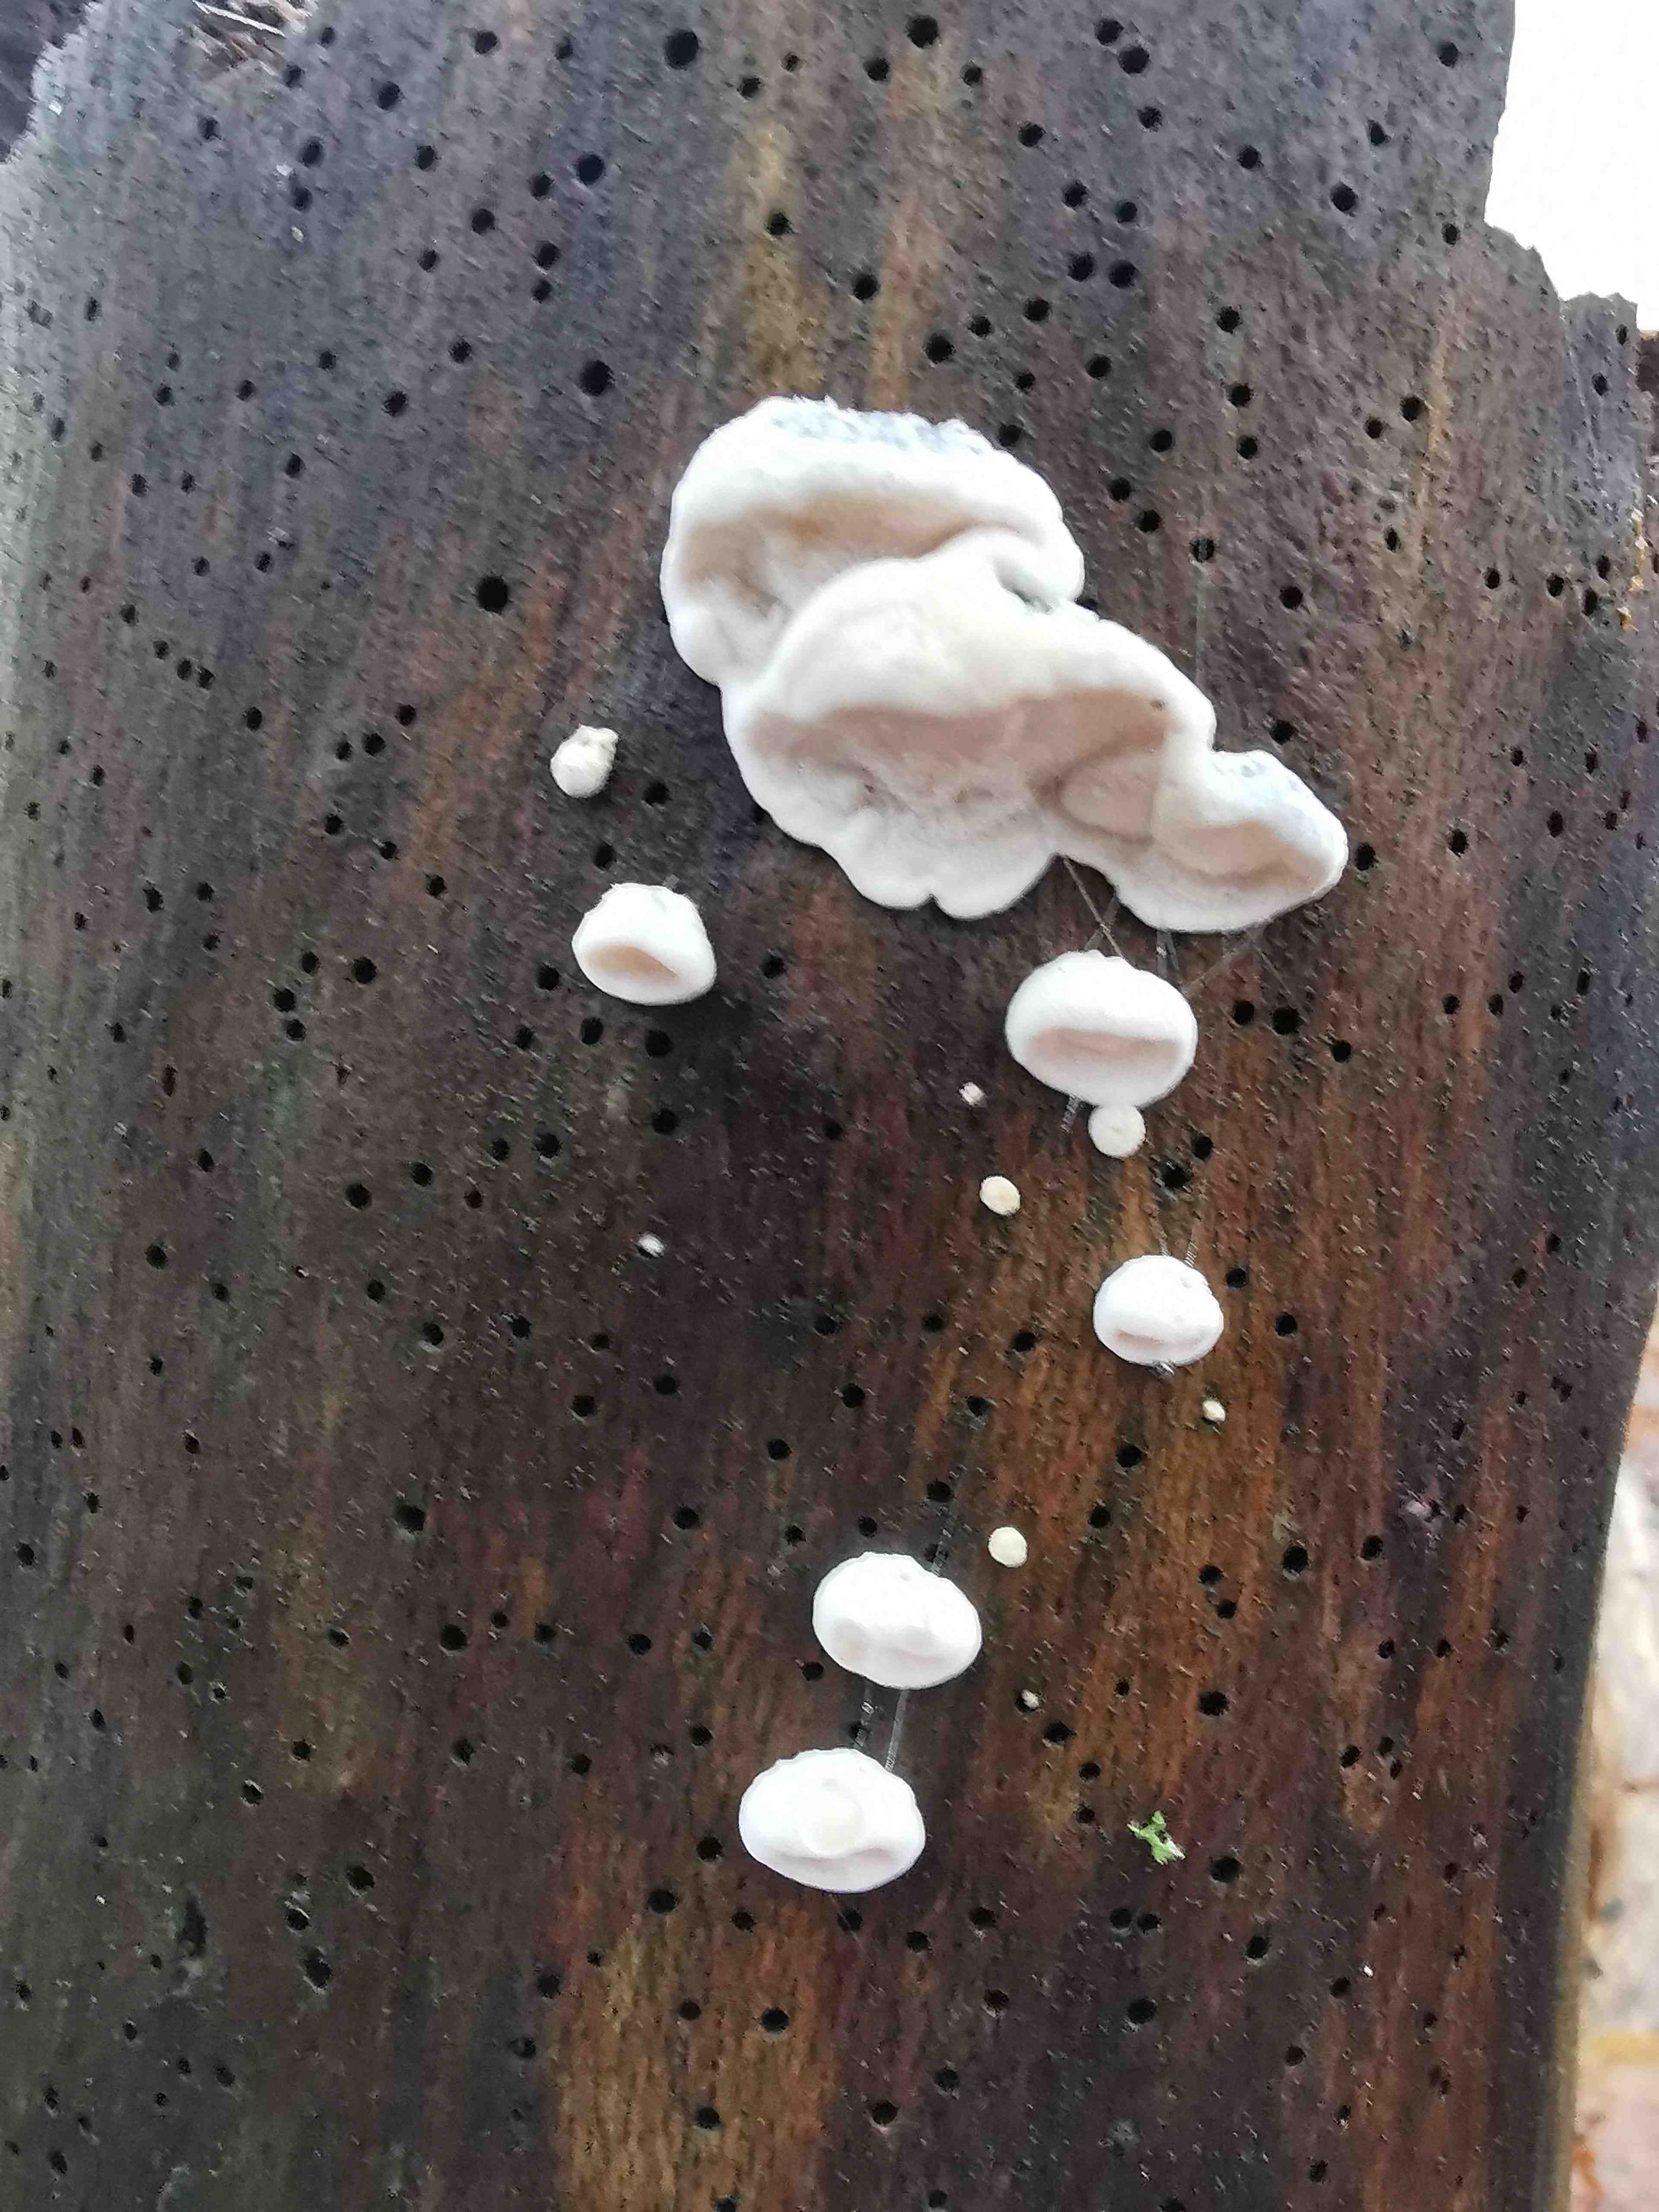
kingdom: Fungi
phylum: Basidiomycota
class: Agaricomycetes
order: Polyporales
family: Polyporaceae
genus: Cyanosporus
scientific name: Cyanosporus alni
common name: blegblå kødporesvamp
